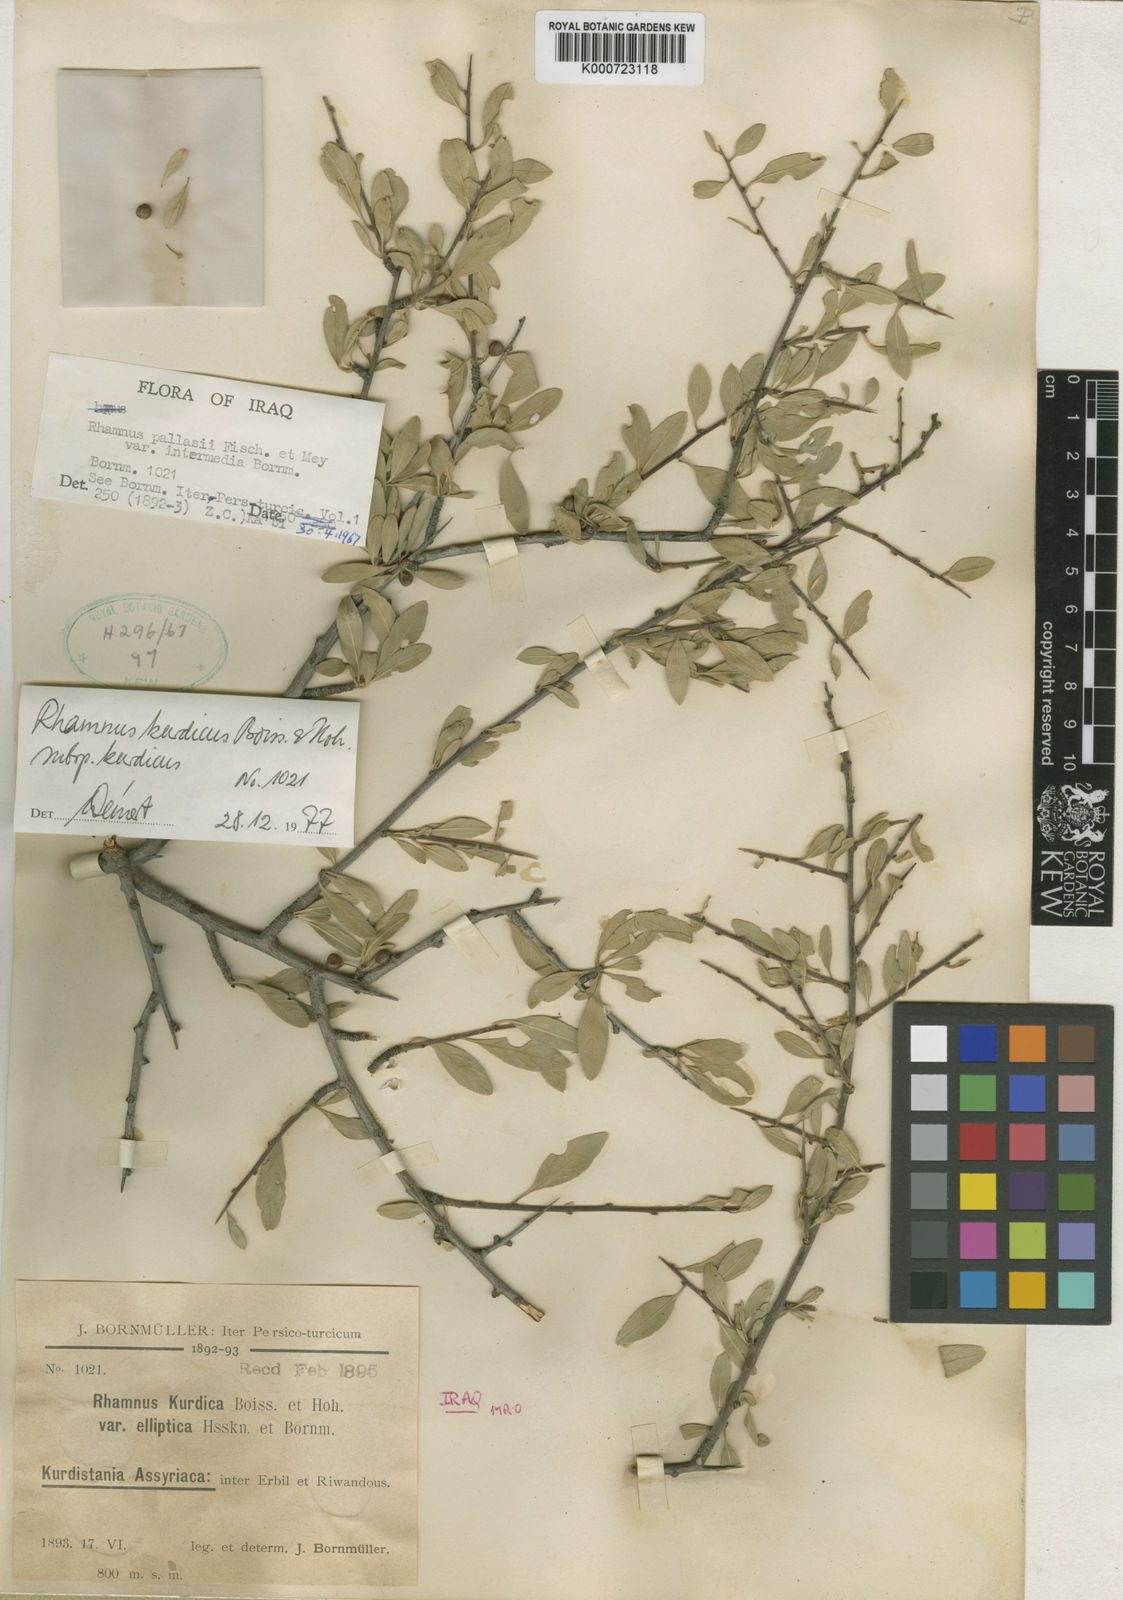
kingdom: Plantae
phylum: Tracheophyta
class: Magnoliopsida
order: Rosales
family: Rhamnaceae
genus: Rhamnus
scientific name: Rhamnus erythroxyloides
